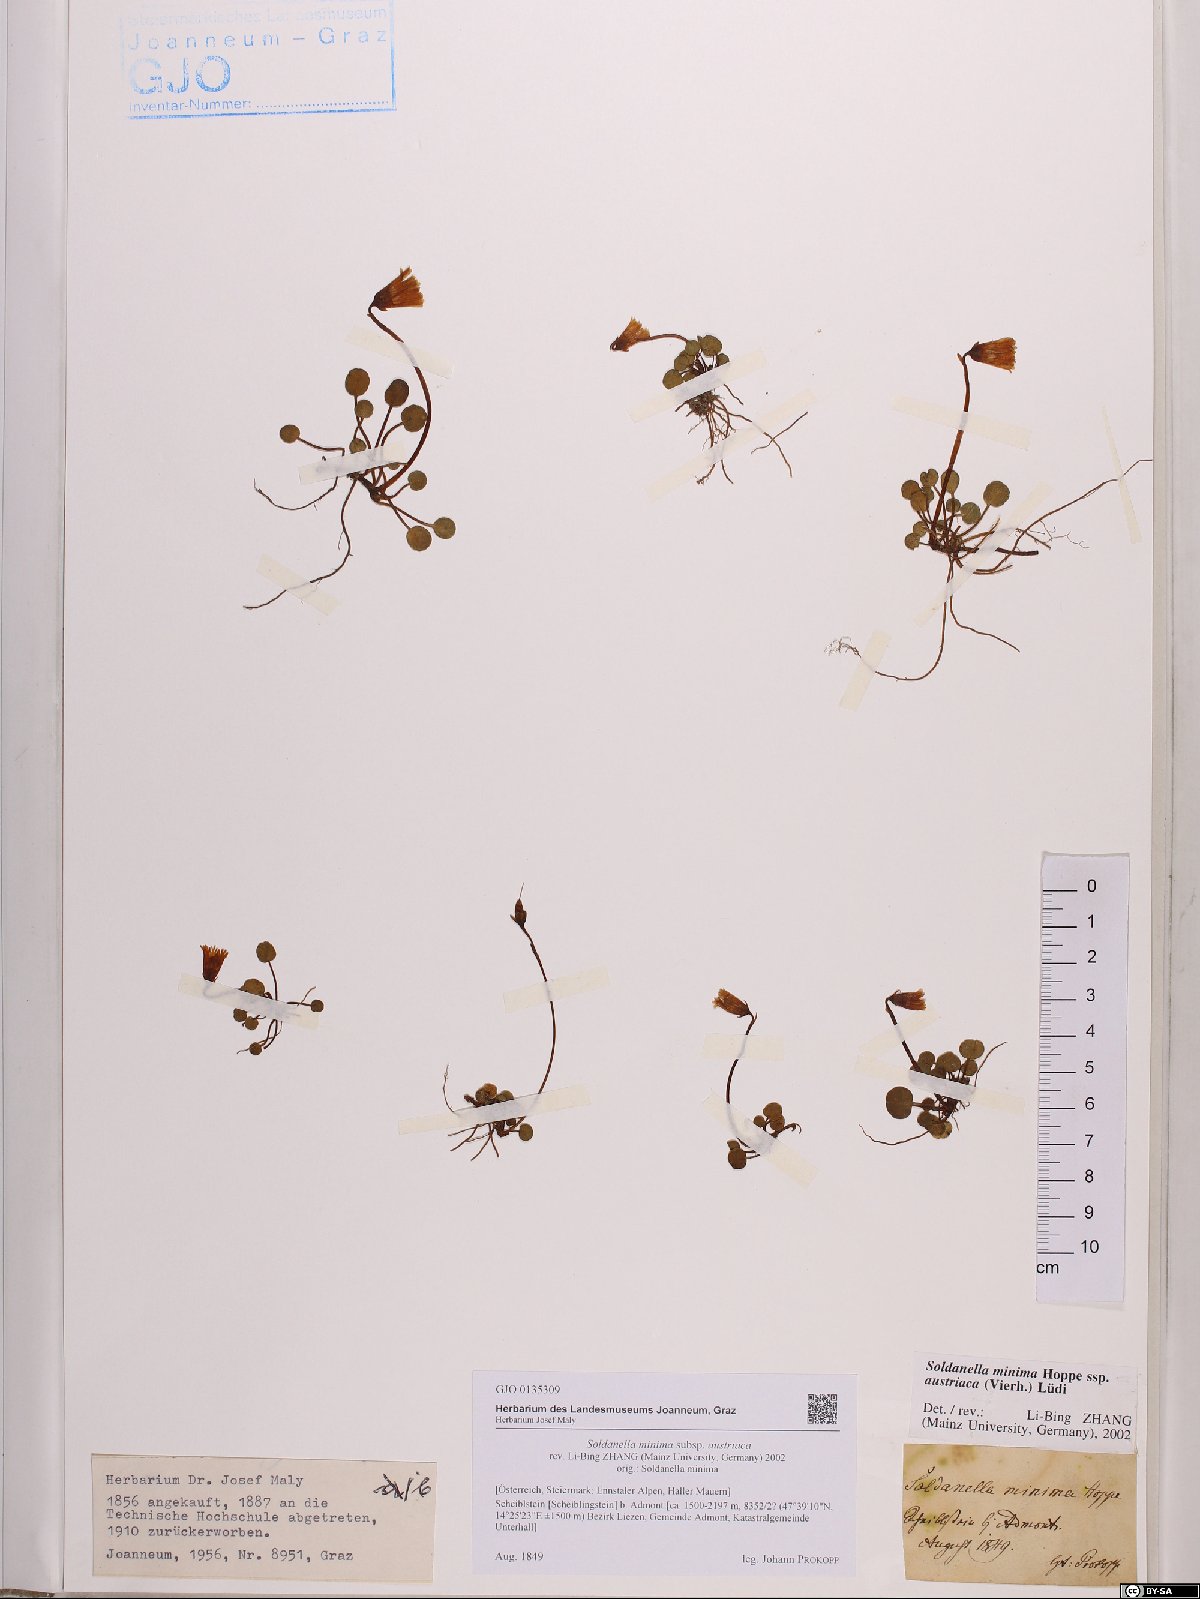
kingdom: Plantae
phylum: Tracheophyta
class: Magnoliopsida
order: Ericales
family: Primulaceae
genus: Soldanella
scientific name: Soldanella austriaca
